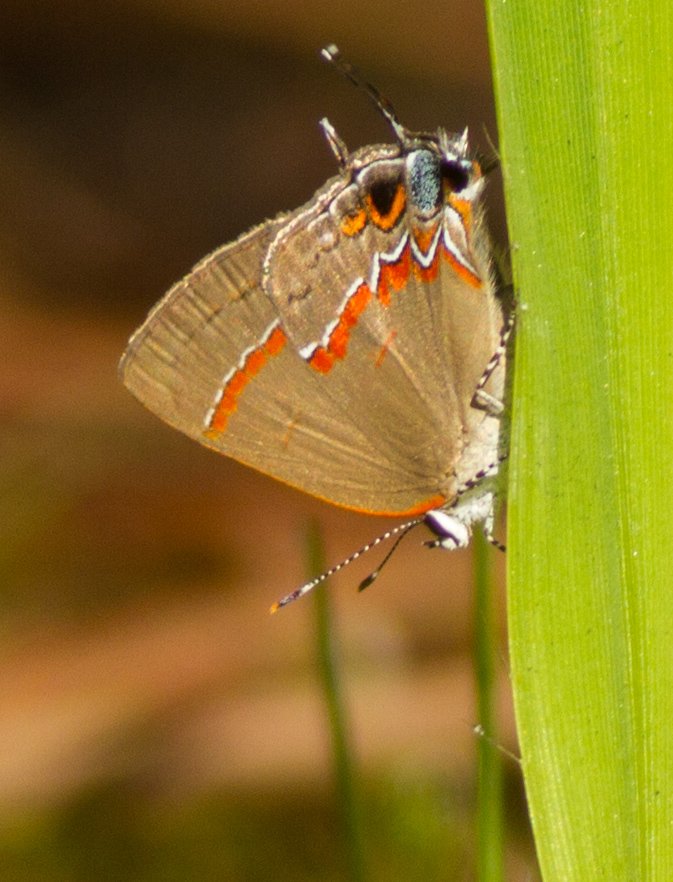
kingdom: Animalia
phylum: Arthropoda
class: Insecta
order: Lepidoptera
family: Lycaenidae
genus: Calycopis
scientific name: Calycopis cecrops
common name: Red-banded Hairstreak
